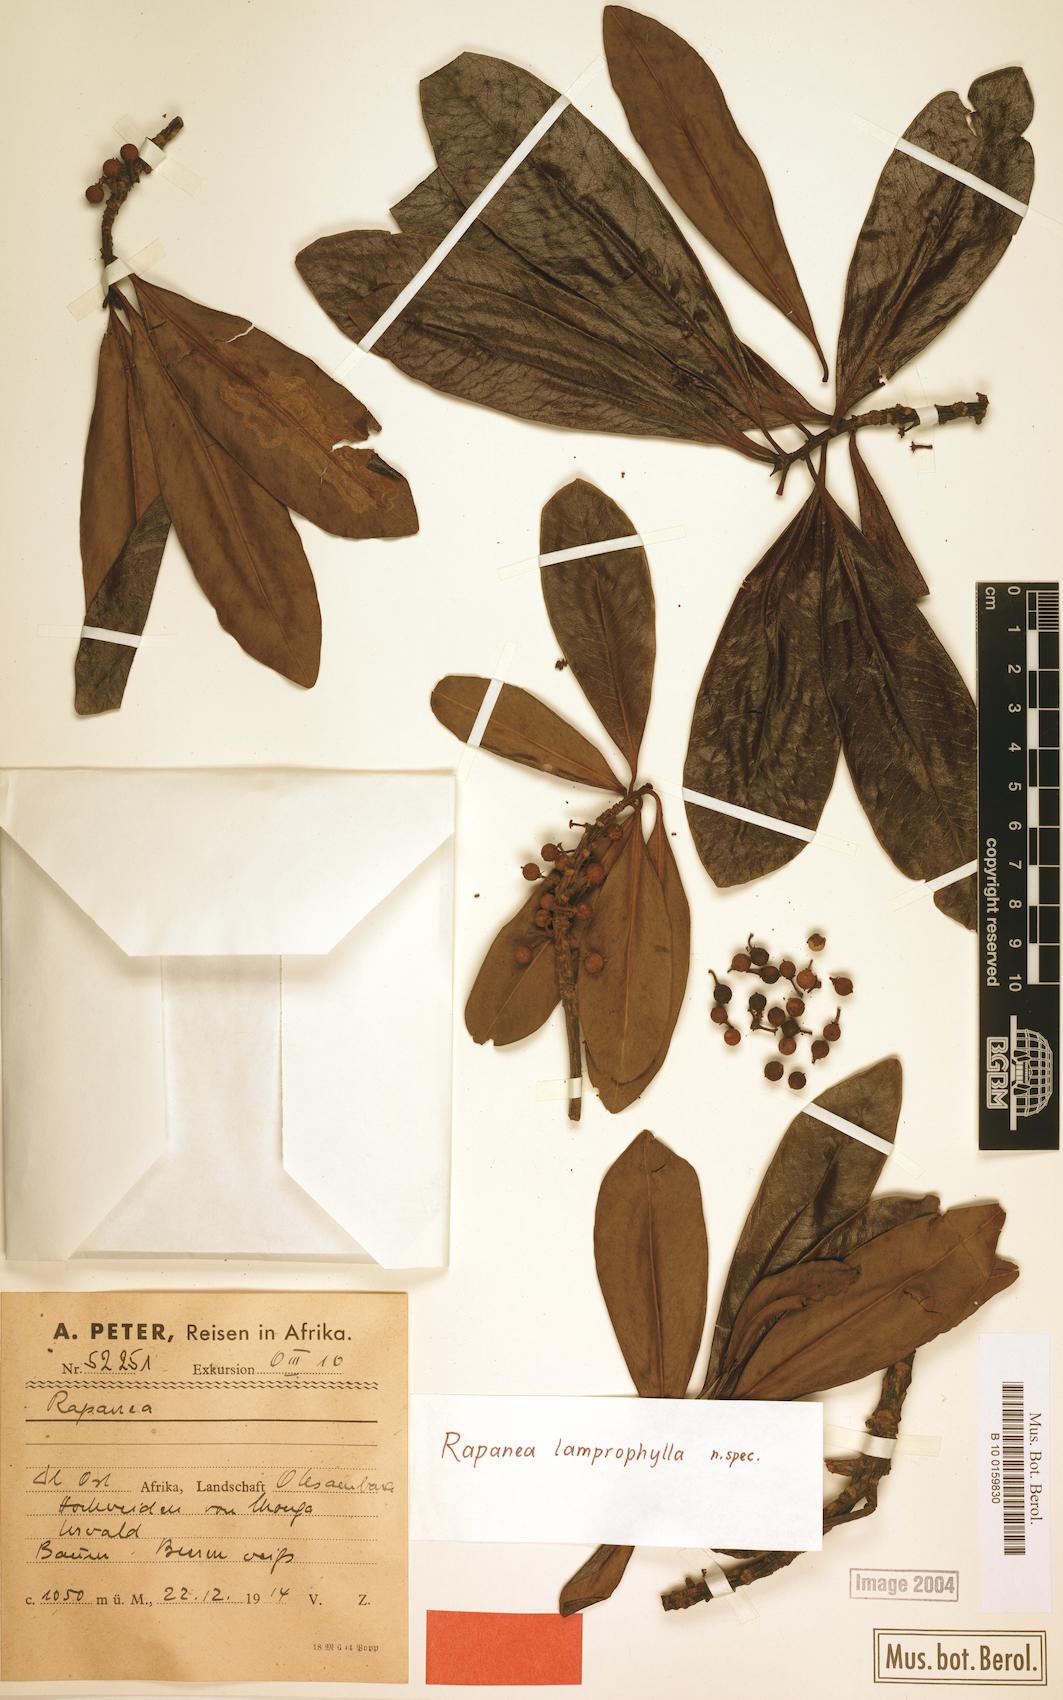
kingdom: Plantae
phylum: Tracheophyta
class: Magnoliopsida
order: Ericales
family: Primulaceae
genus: Myrsine
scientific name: Myrsine
